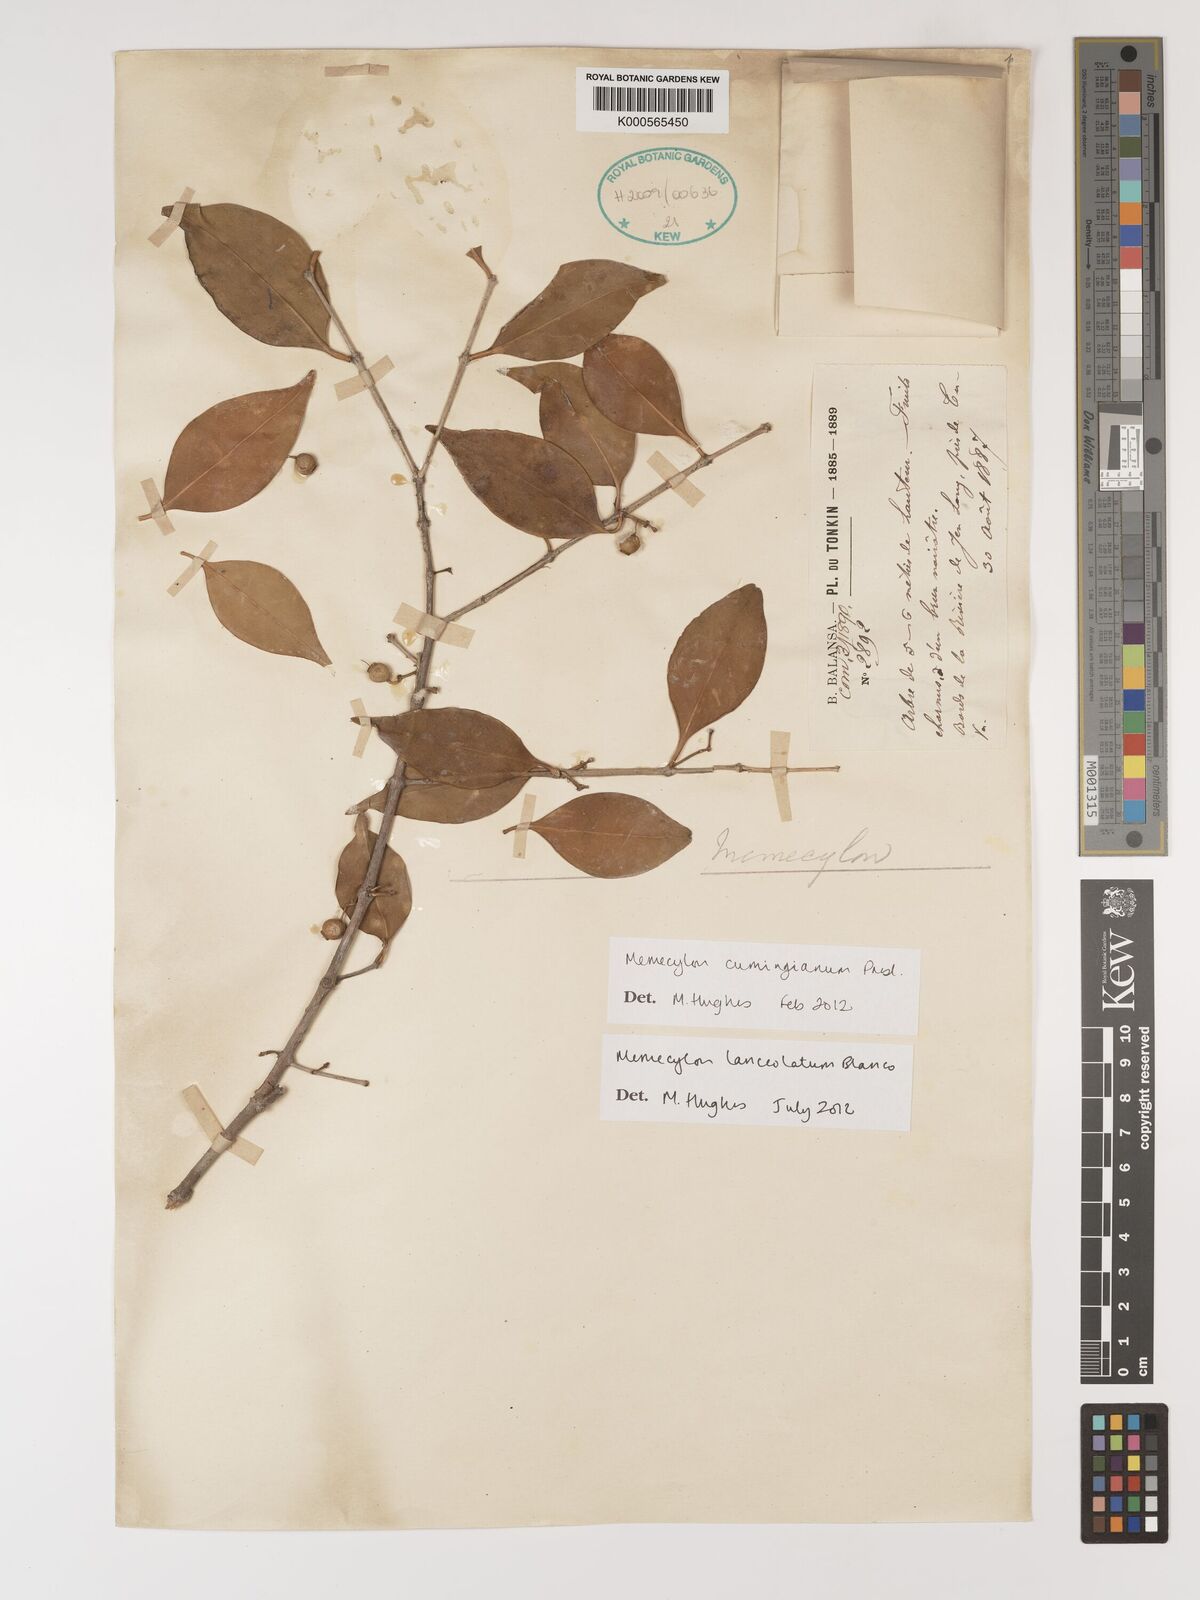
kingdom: Plantae
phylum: Tracheophyta
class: Magnoliopsida
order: Myrtales
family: Melastomataceae
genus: Memecylon
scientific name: Memecylon lanceolatum
